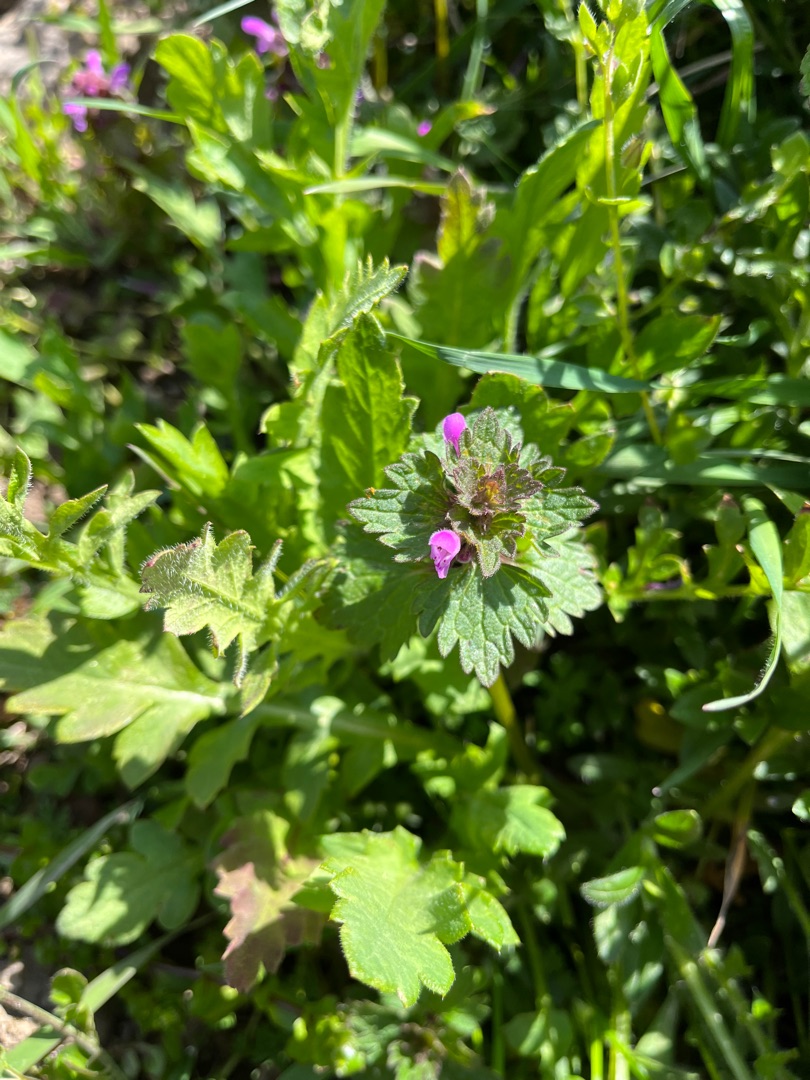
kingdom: Plantae
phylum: Tracheophyta
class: Magnoliopsida
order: Lamiales
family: Lamiaceae
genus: Lamium
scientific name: Lamium hybridum
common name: Fliget tvetand
